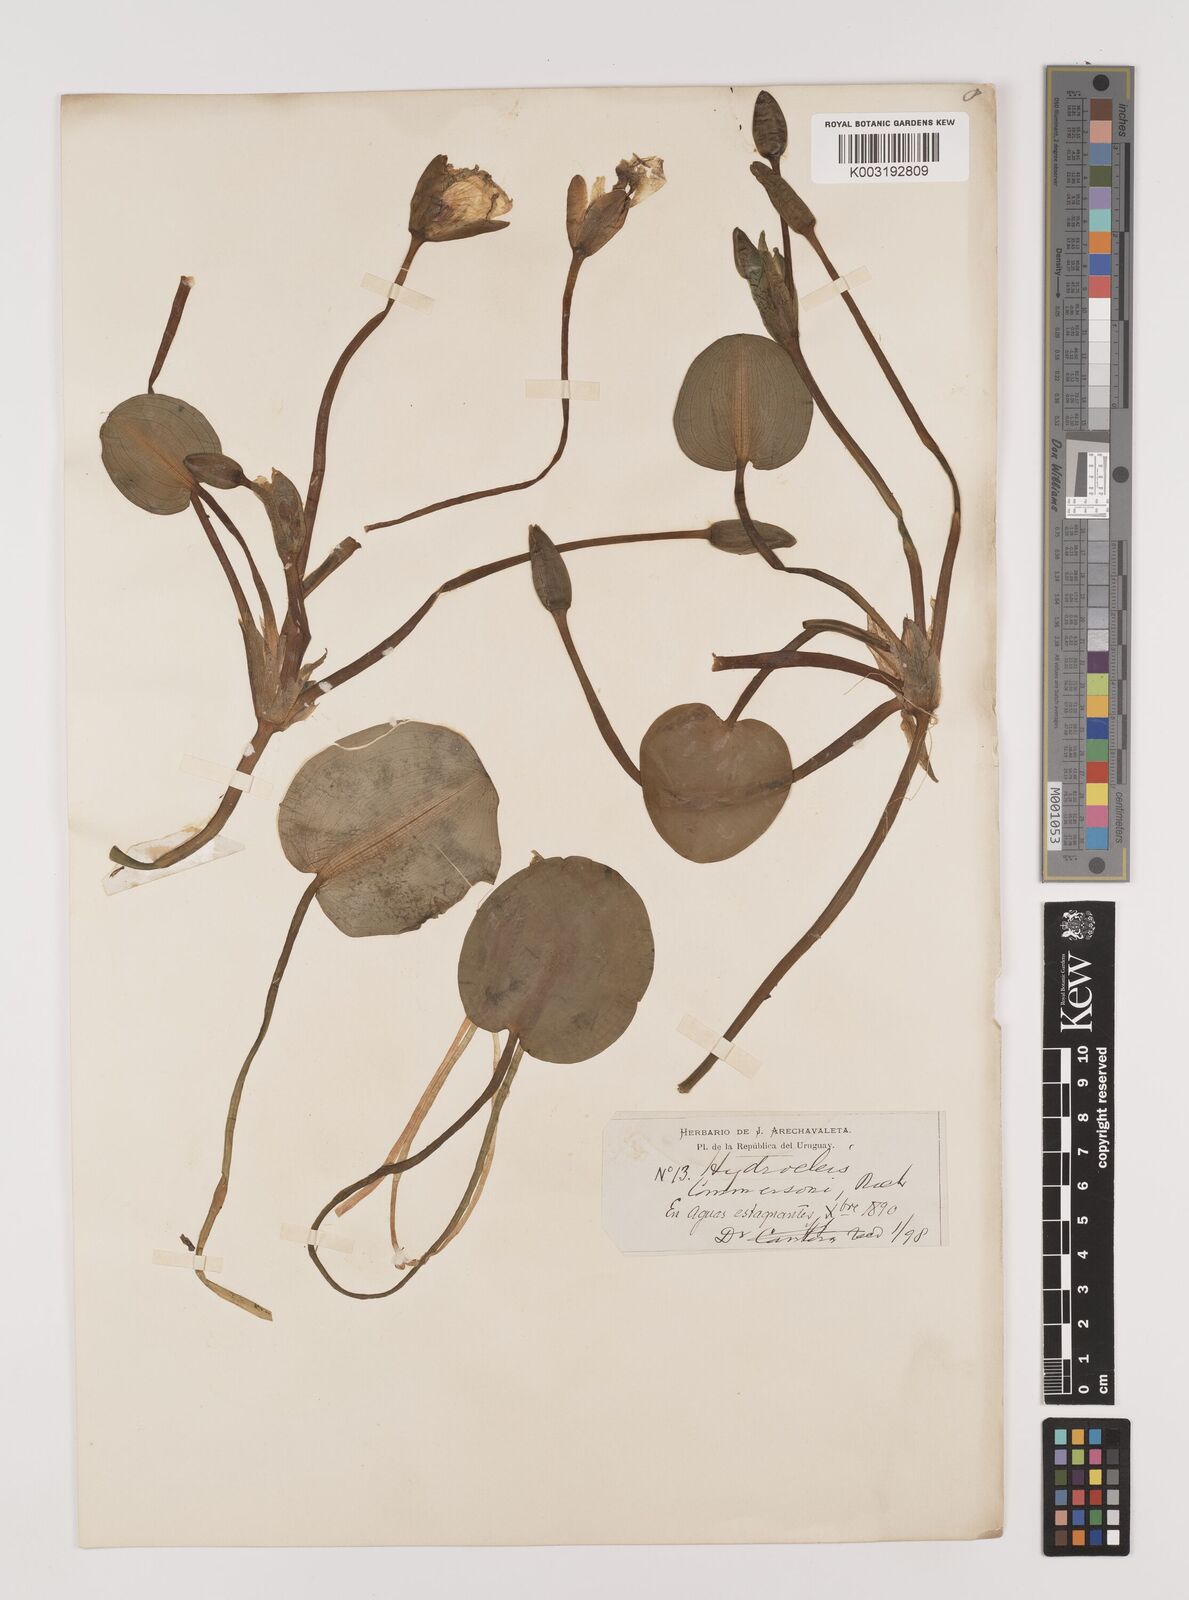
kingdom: Plantae
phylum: Tracheophyta
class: Liliopsida
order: Alismatales
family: Alismataceae
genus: Hydrocleys
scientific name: Hydrocleys nymphoides
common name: Water-poppy
